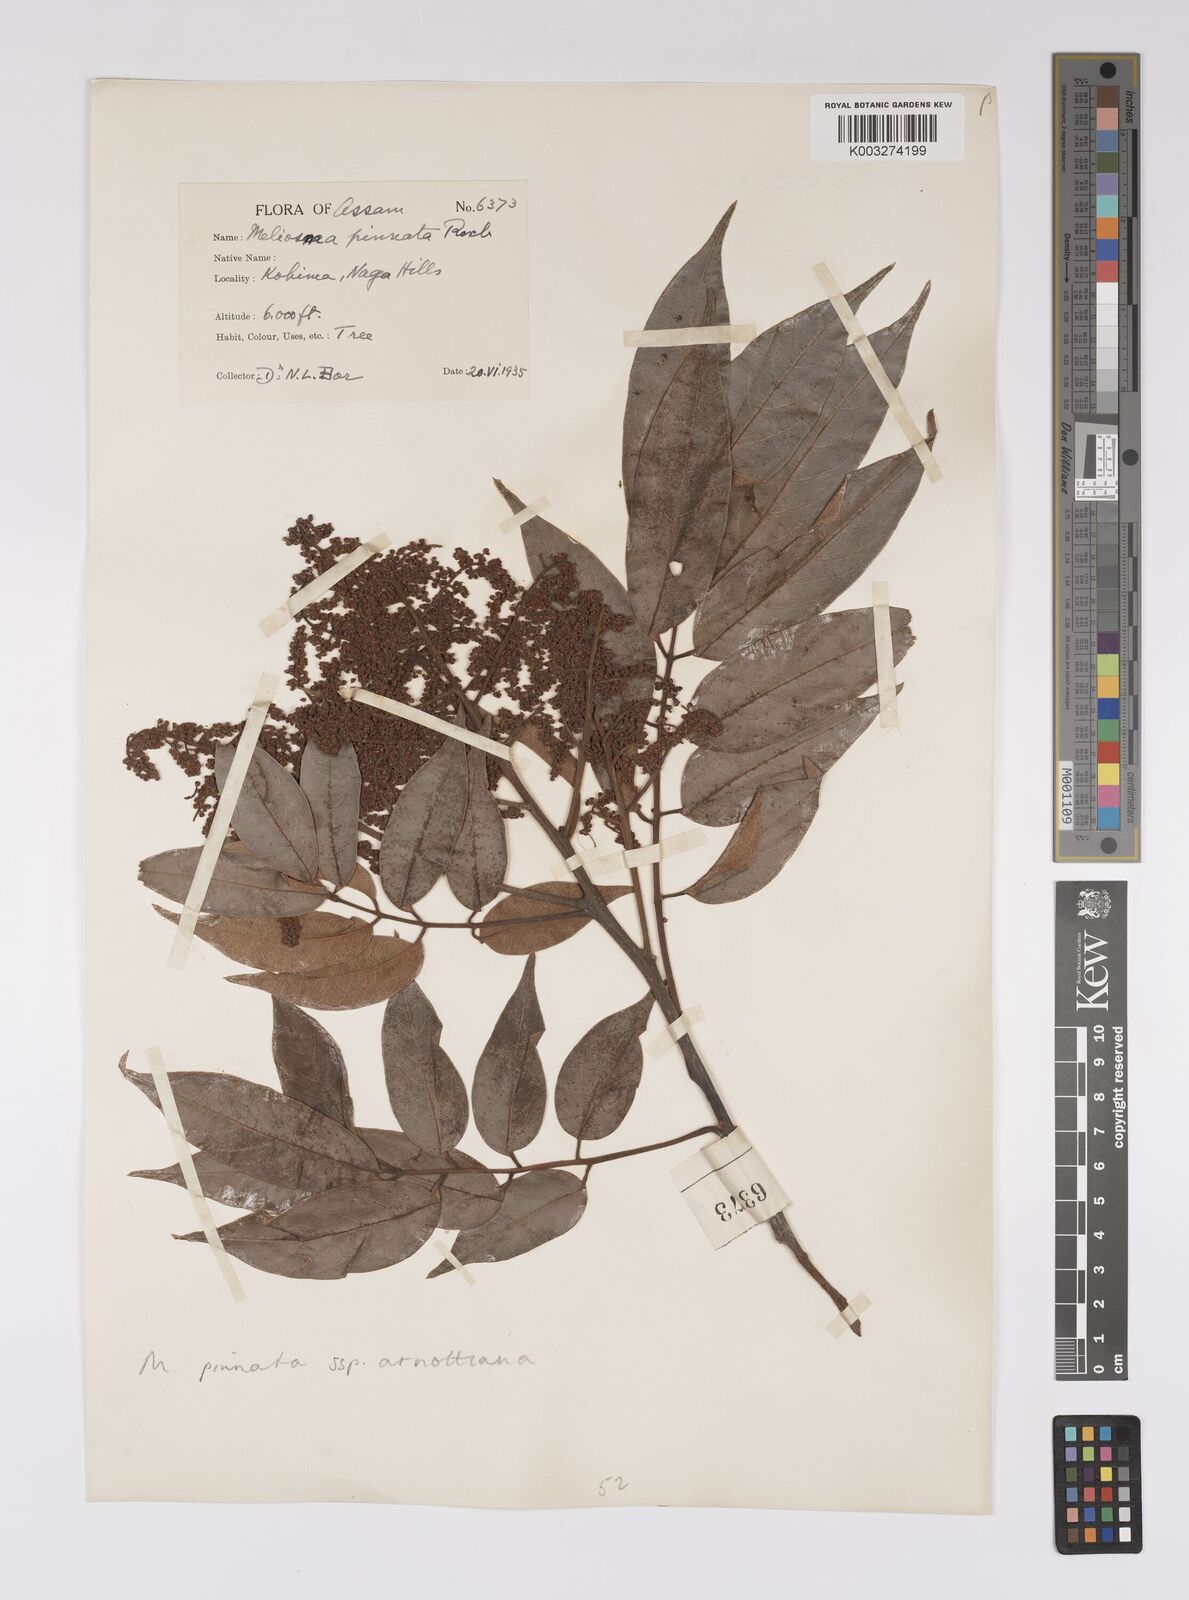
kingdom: Plantae
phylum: Tracheophyta
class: Magnoliopsida
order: Proteales
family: Sabiaceae
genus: Meliosma
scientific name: Meliosma rhoifolia
